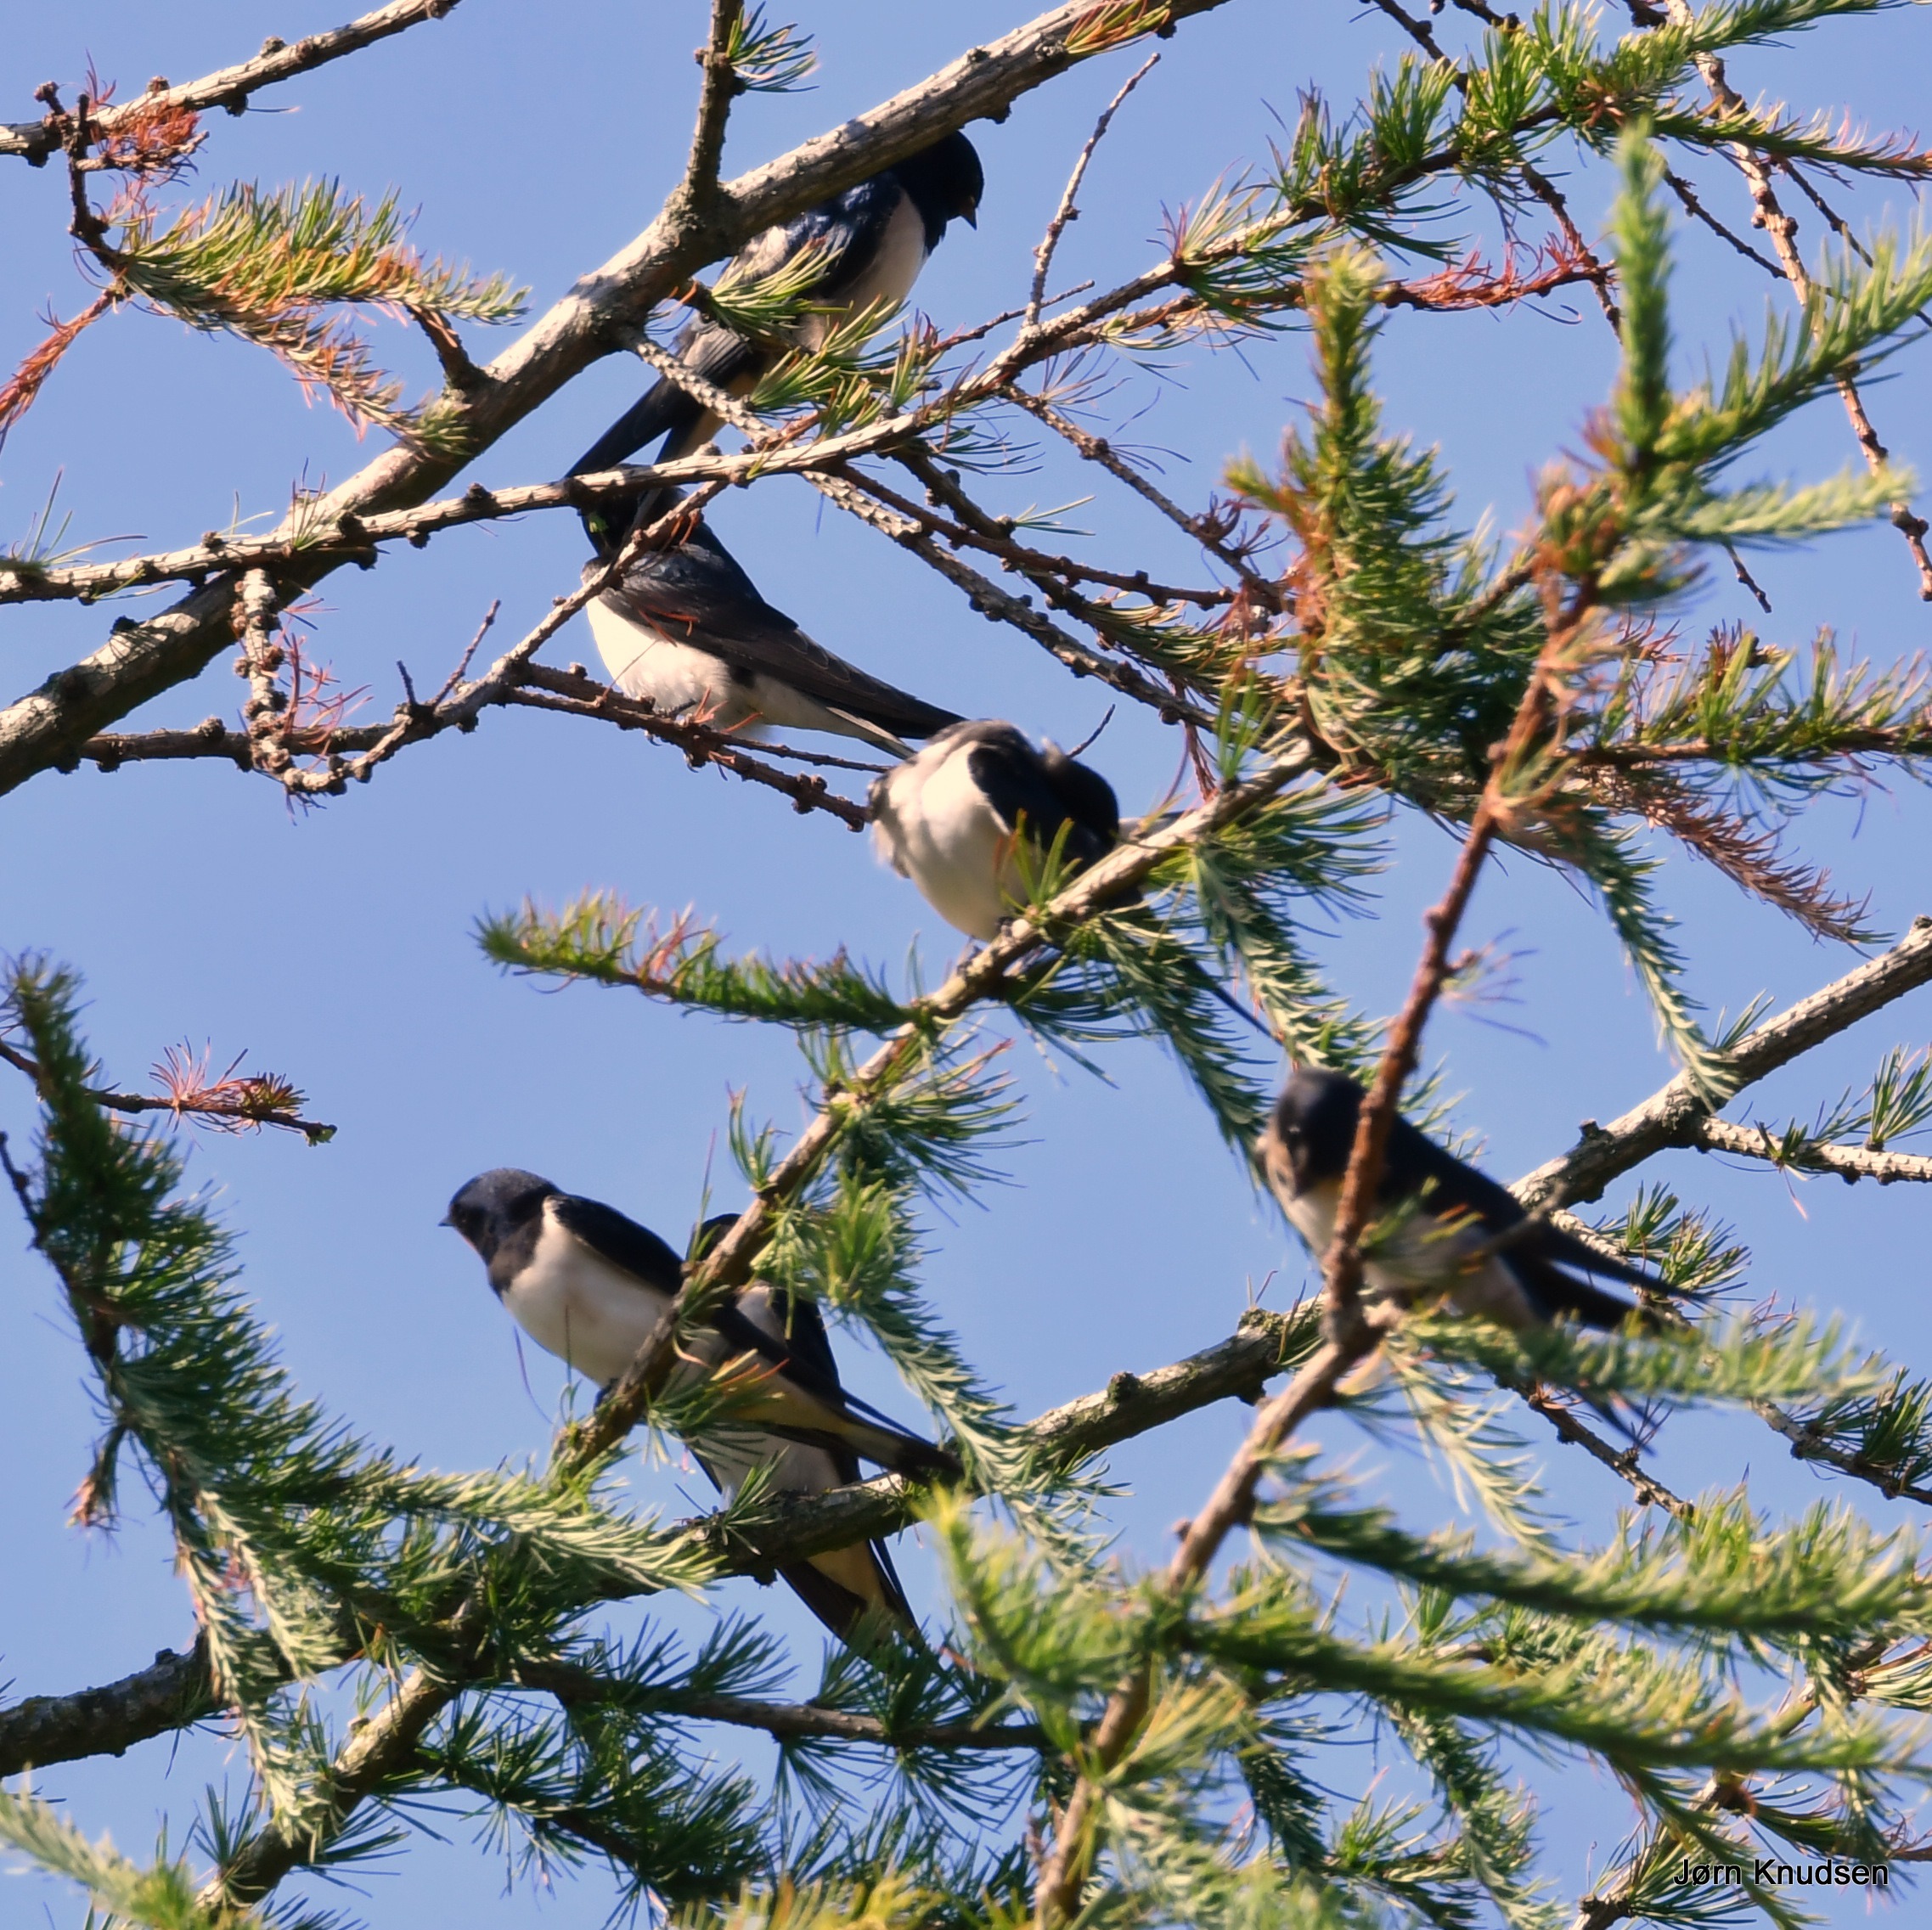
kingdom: Animalia
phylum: Chordata
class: Aves
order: Passeriformes
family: Hirundinidae
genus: Hirundo
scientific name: Hirundo rustica
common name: Landsvale
